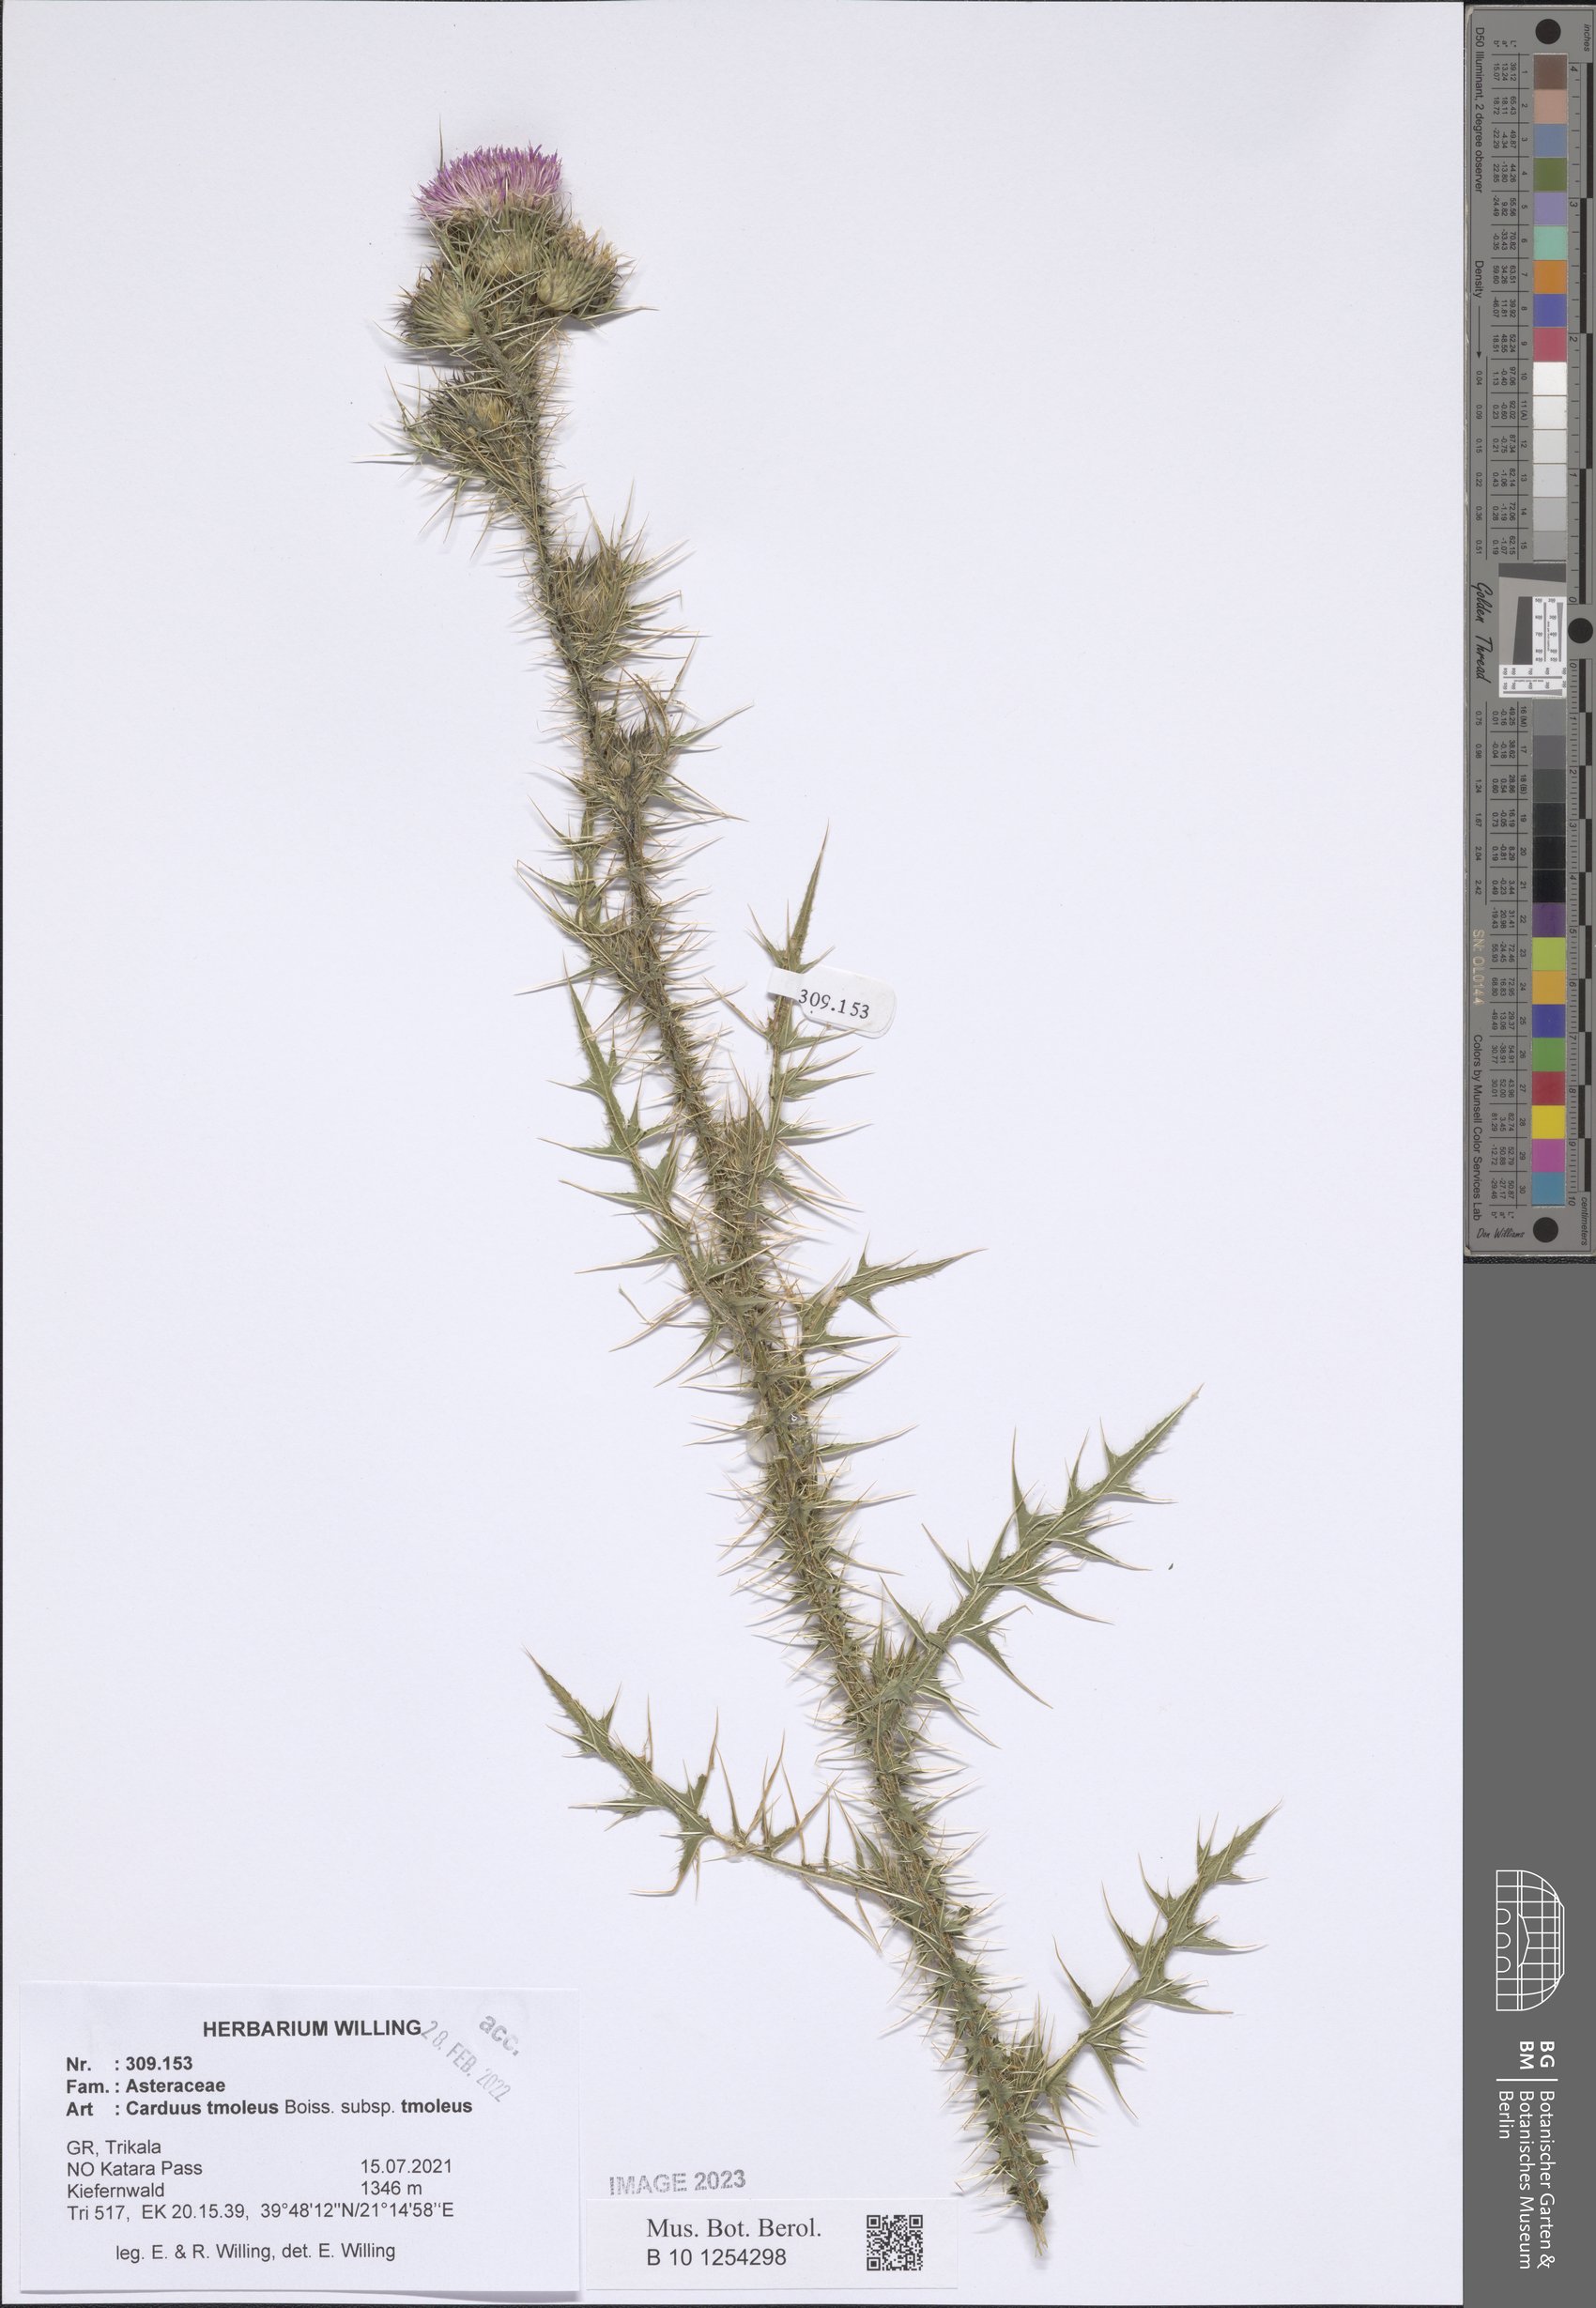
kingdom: Plantae
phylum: Tracheophyta
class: Magnoliopsida
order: Asterales
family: Asteraceae
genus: Carduus
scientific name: Carduus tmoleus
